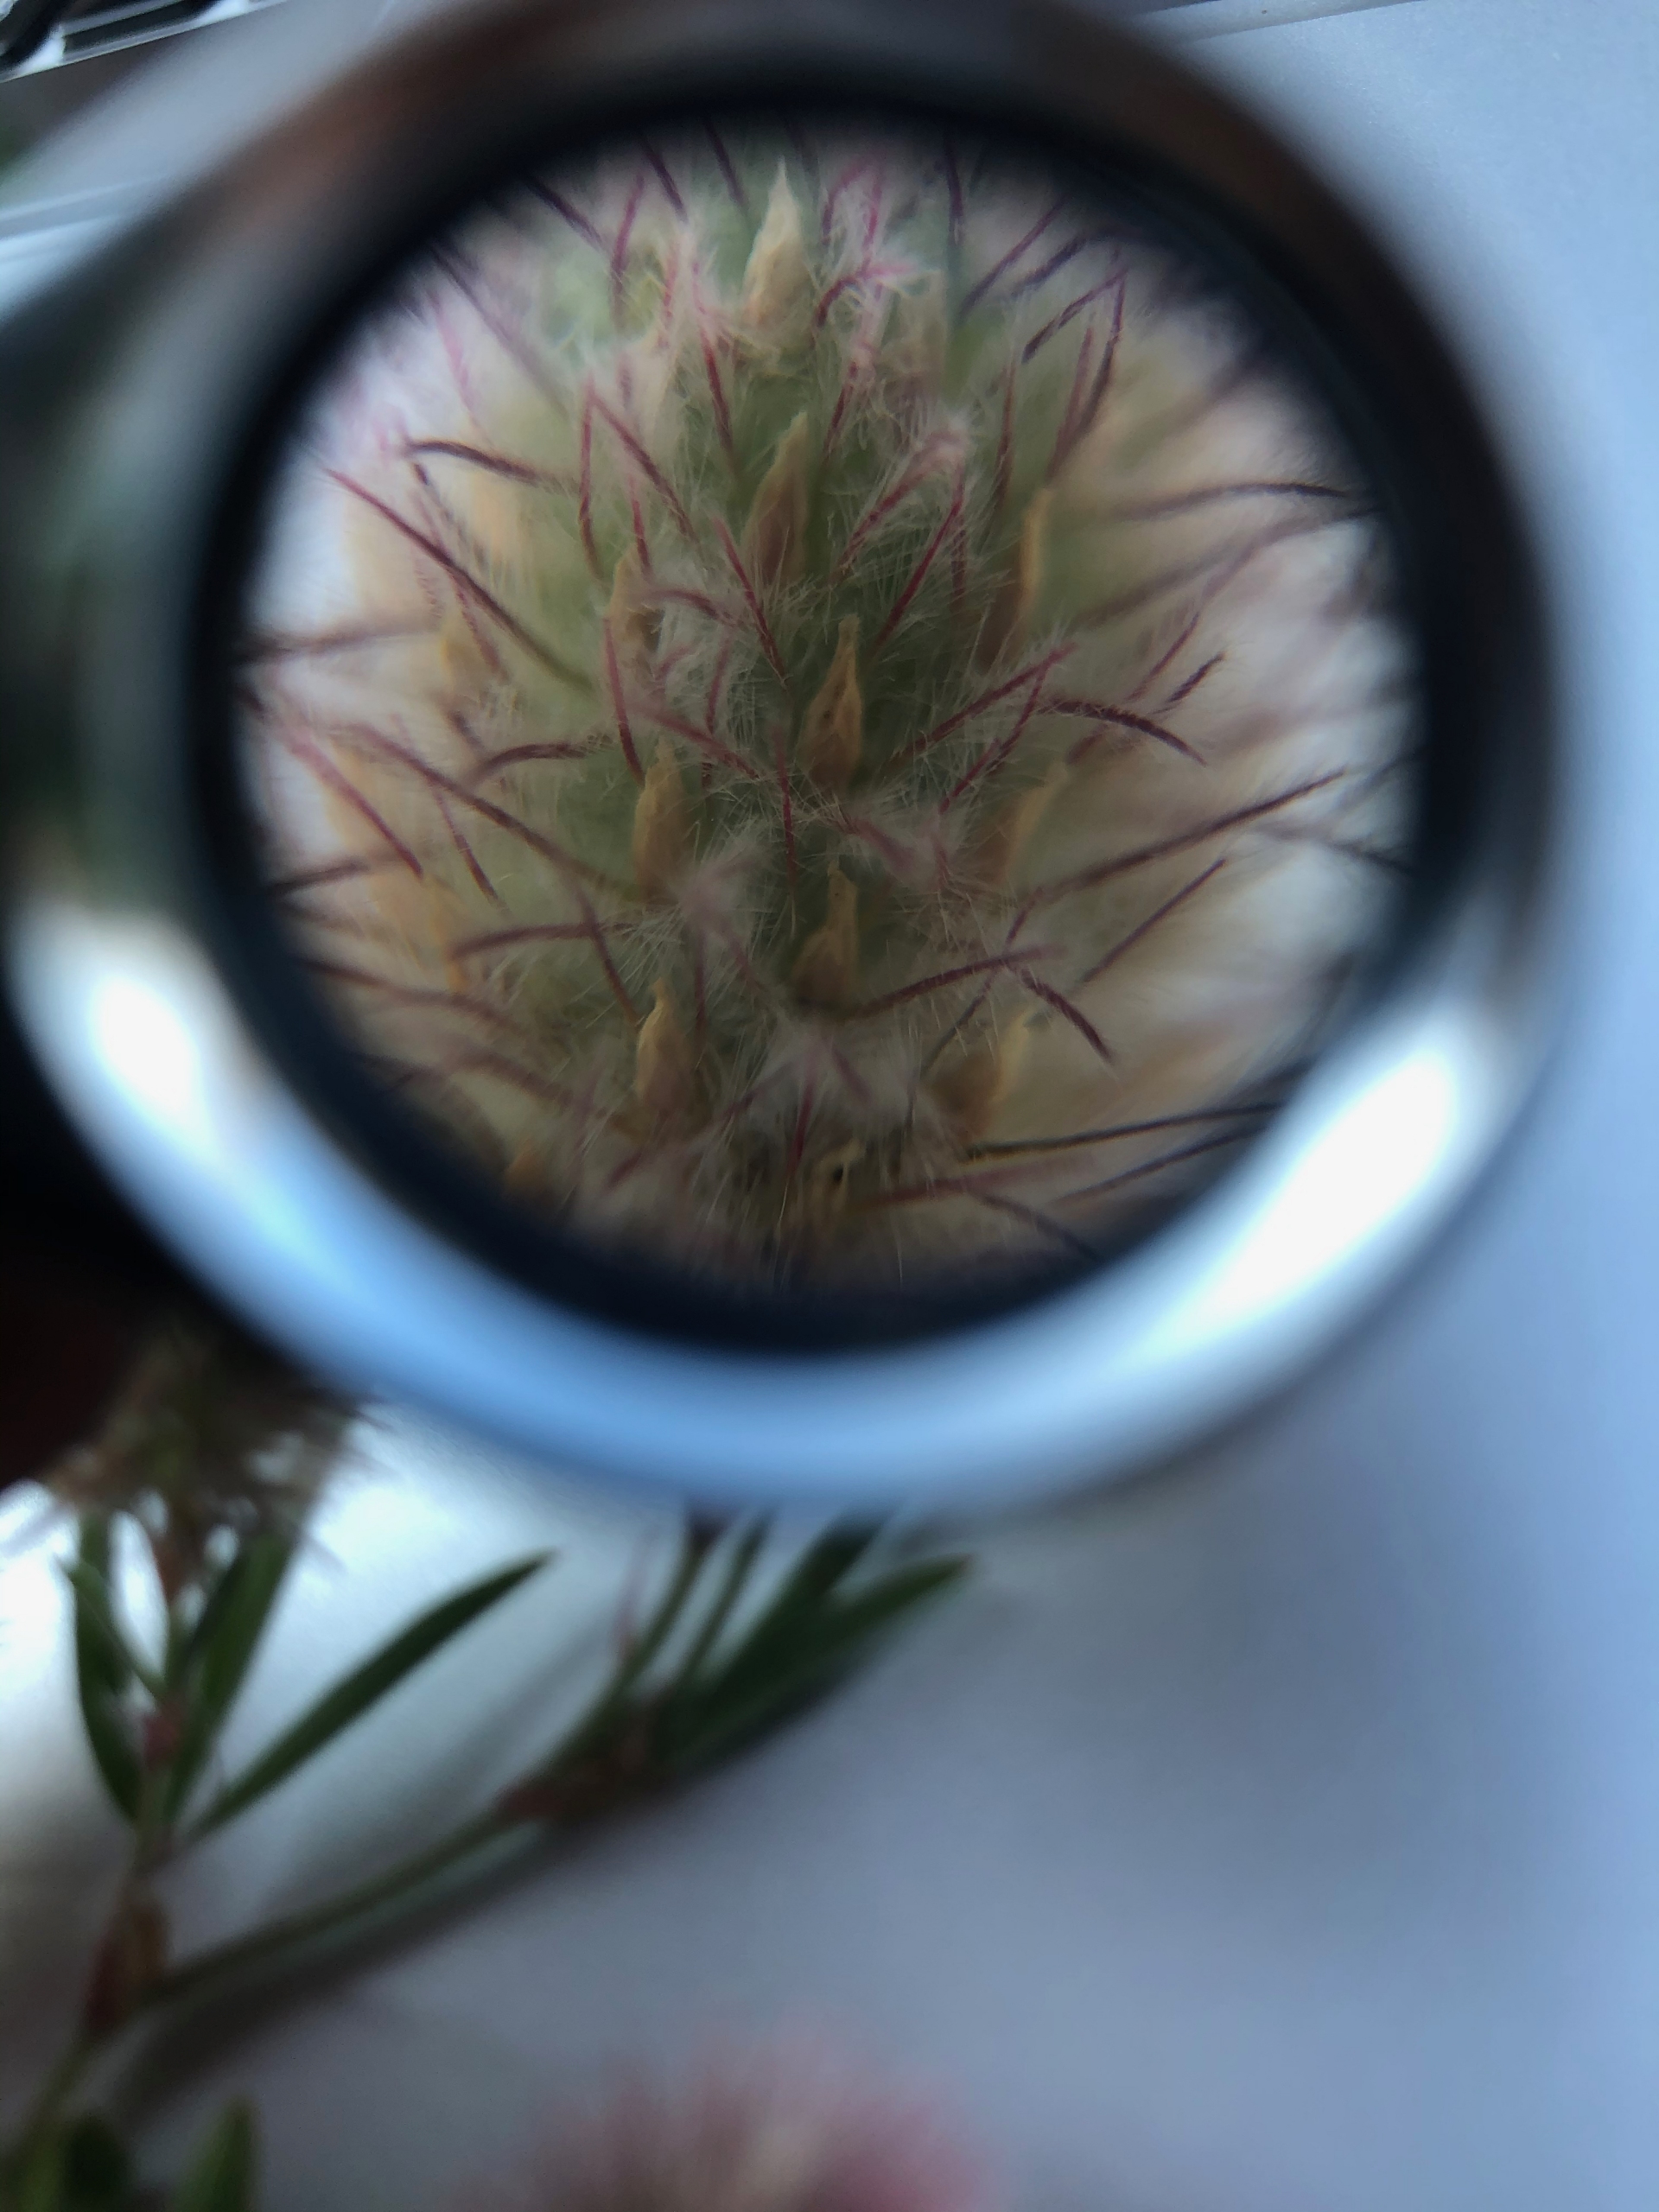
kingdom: Plantae
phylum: Tracheophyta
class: Magnoliopsida
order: Fabales
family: Fabaceae
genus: Trifolium
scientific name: Trifolium arvense
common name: Hare-kløver
